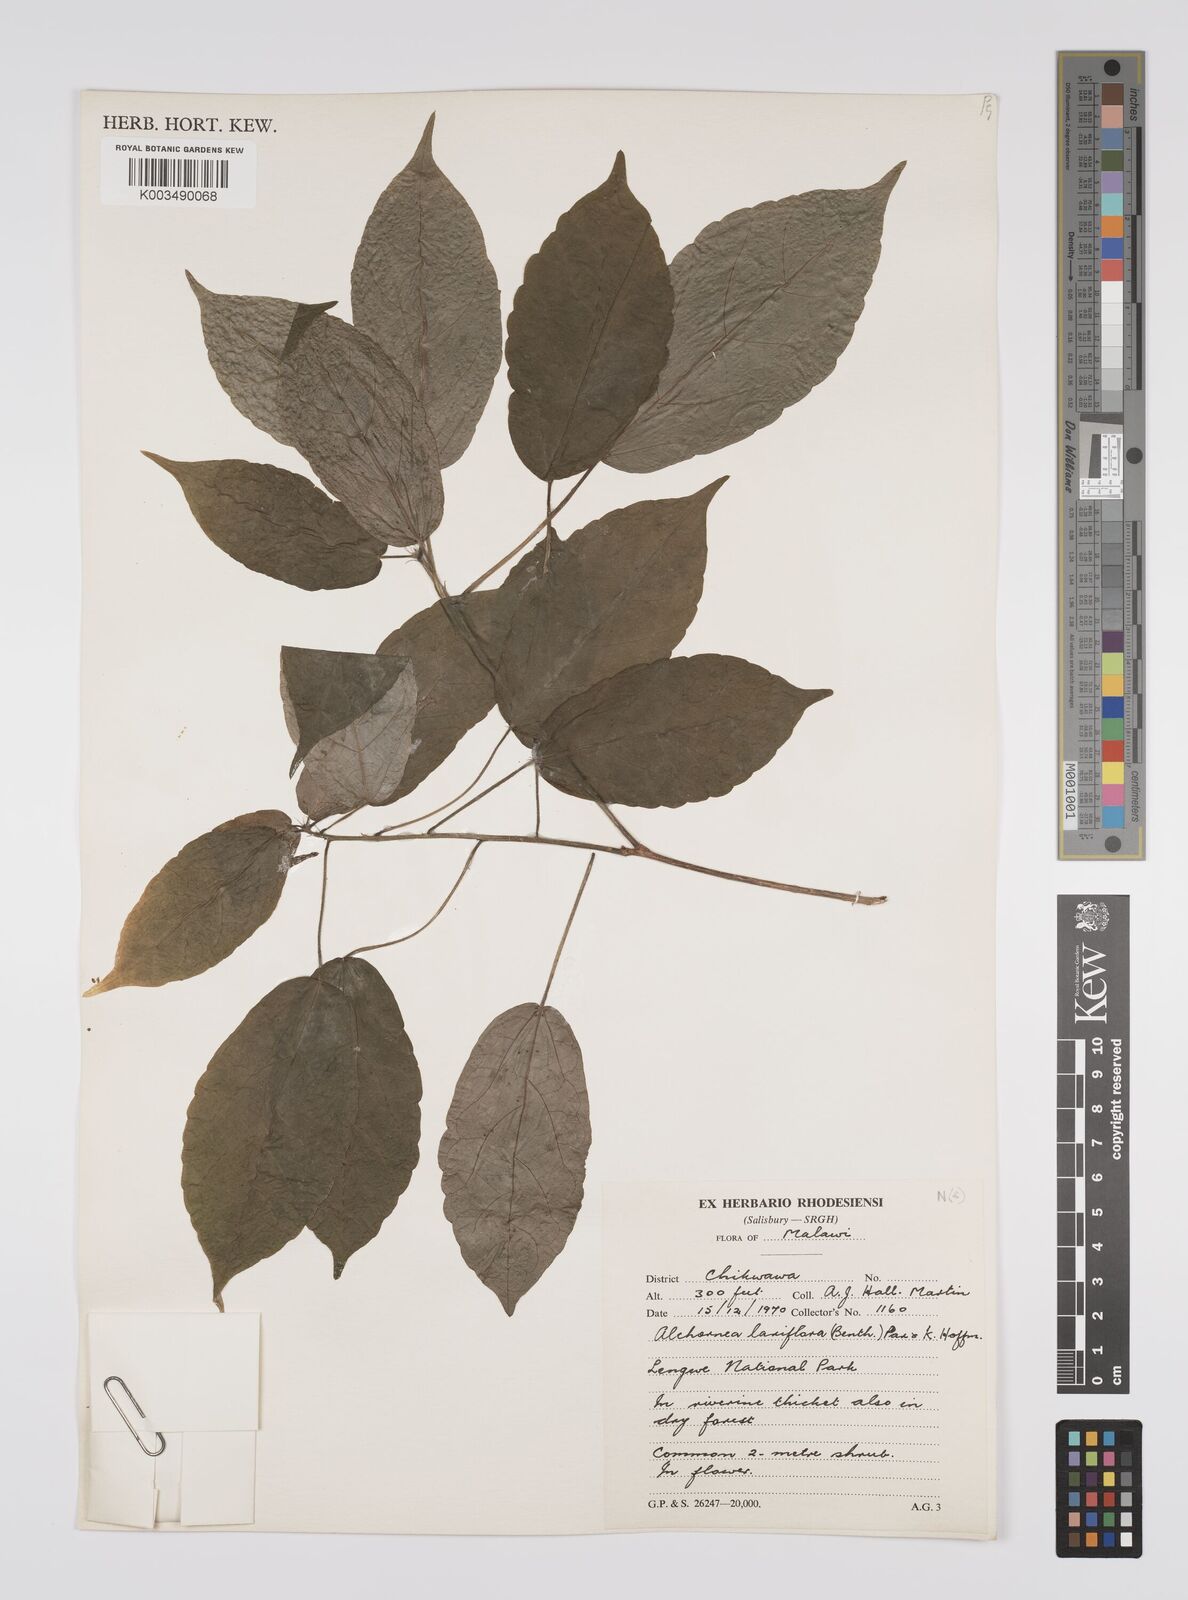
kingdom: Plantae
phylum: Tracheophyta
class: Magnoliopsida
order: Malpighiales
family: Euphorbiaceae
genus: Alchornea
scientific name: Alchornea laxiflora
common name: Lowveld bead-string
